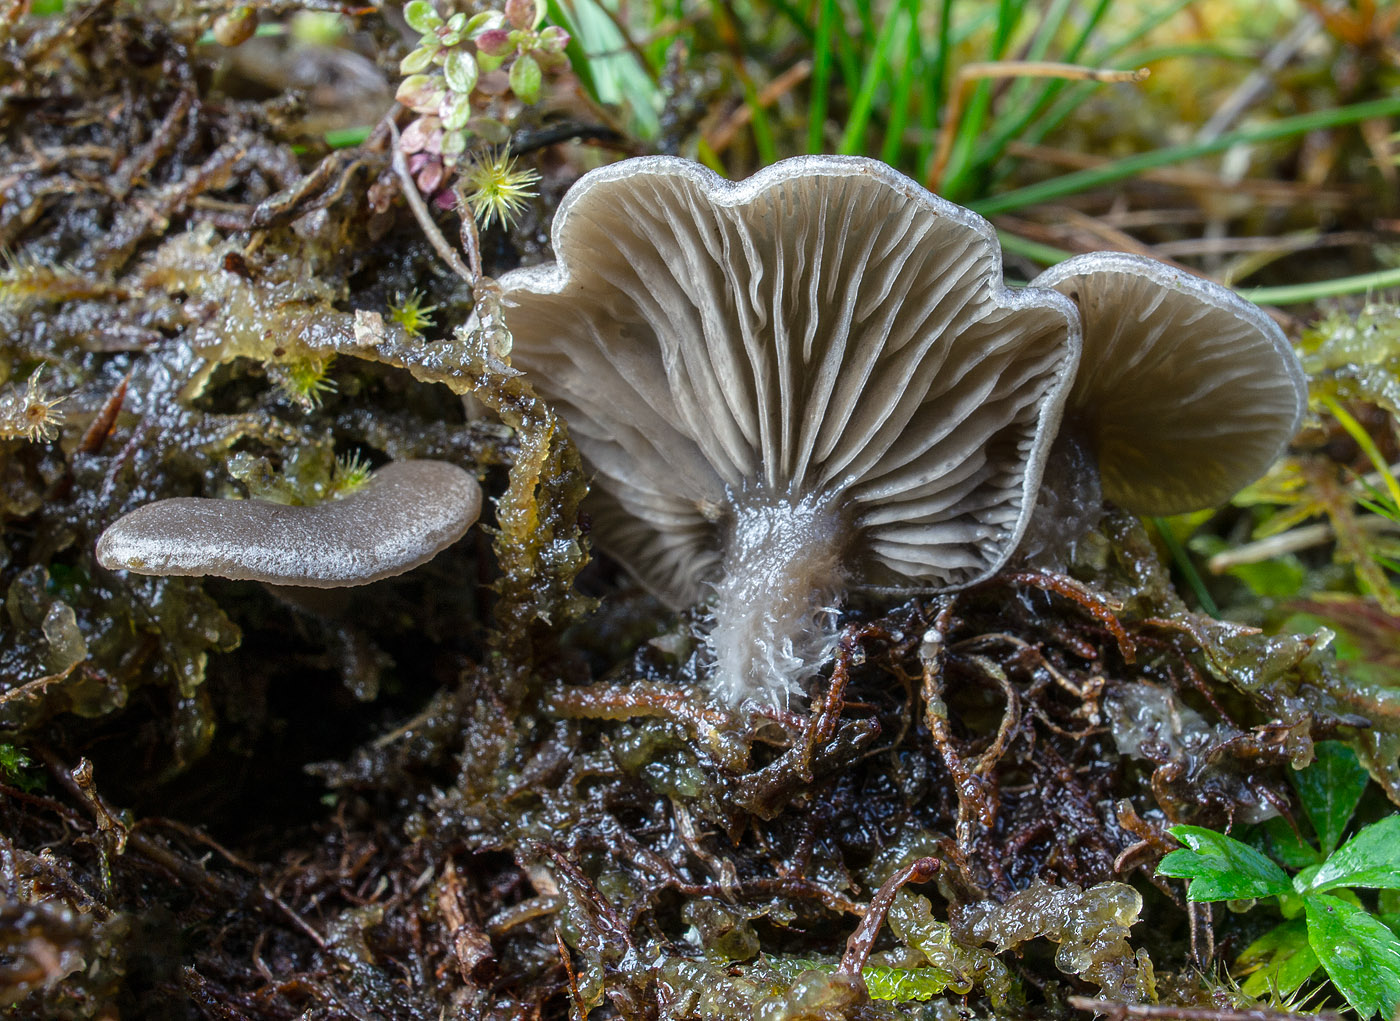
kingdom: Fungi
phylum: Basidiomycota
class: Agaricomycetes
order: Agaricales
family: Hygrophoraceae
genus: Arrhenia
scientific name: Arrhenia acerosa
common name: muslinge-fontænehat
